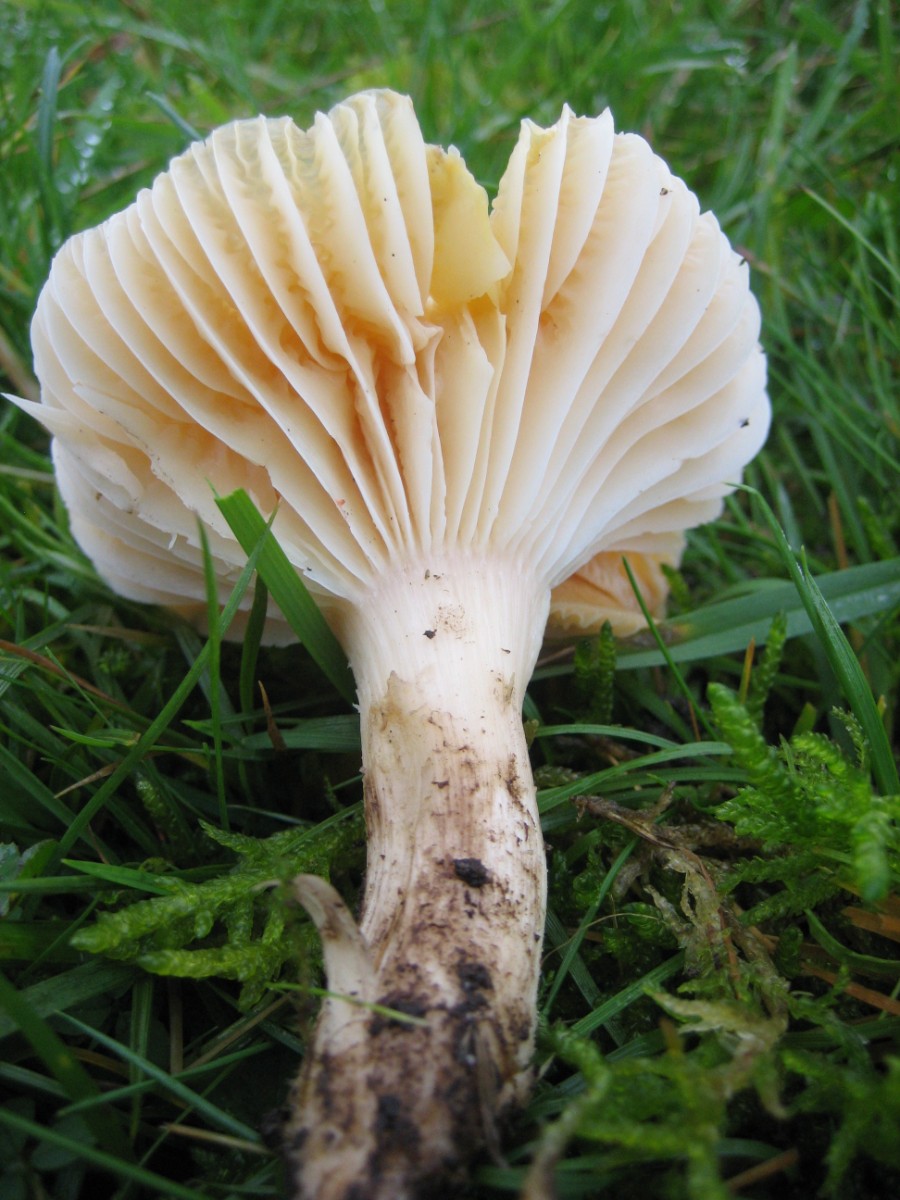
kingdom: Fungi
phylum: Basidiomycota
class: Agaricomycetes
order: Agaricales
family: Hygrophoraceae
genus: Cuphophyllus
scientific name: Cuphophyllus pratensis
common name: eng-vokshat
